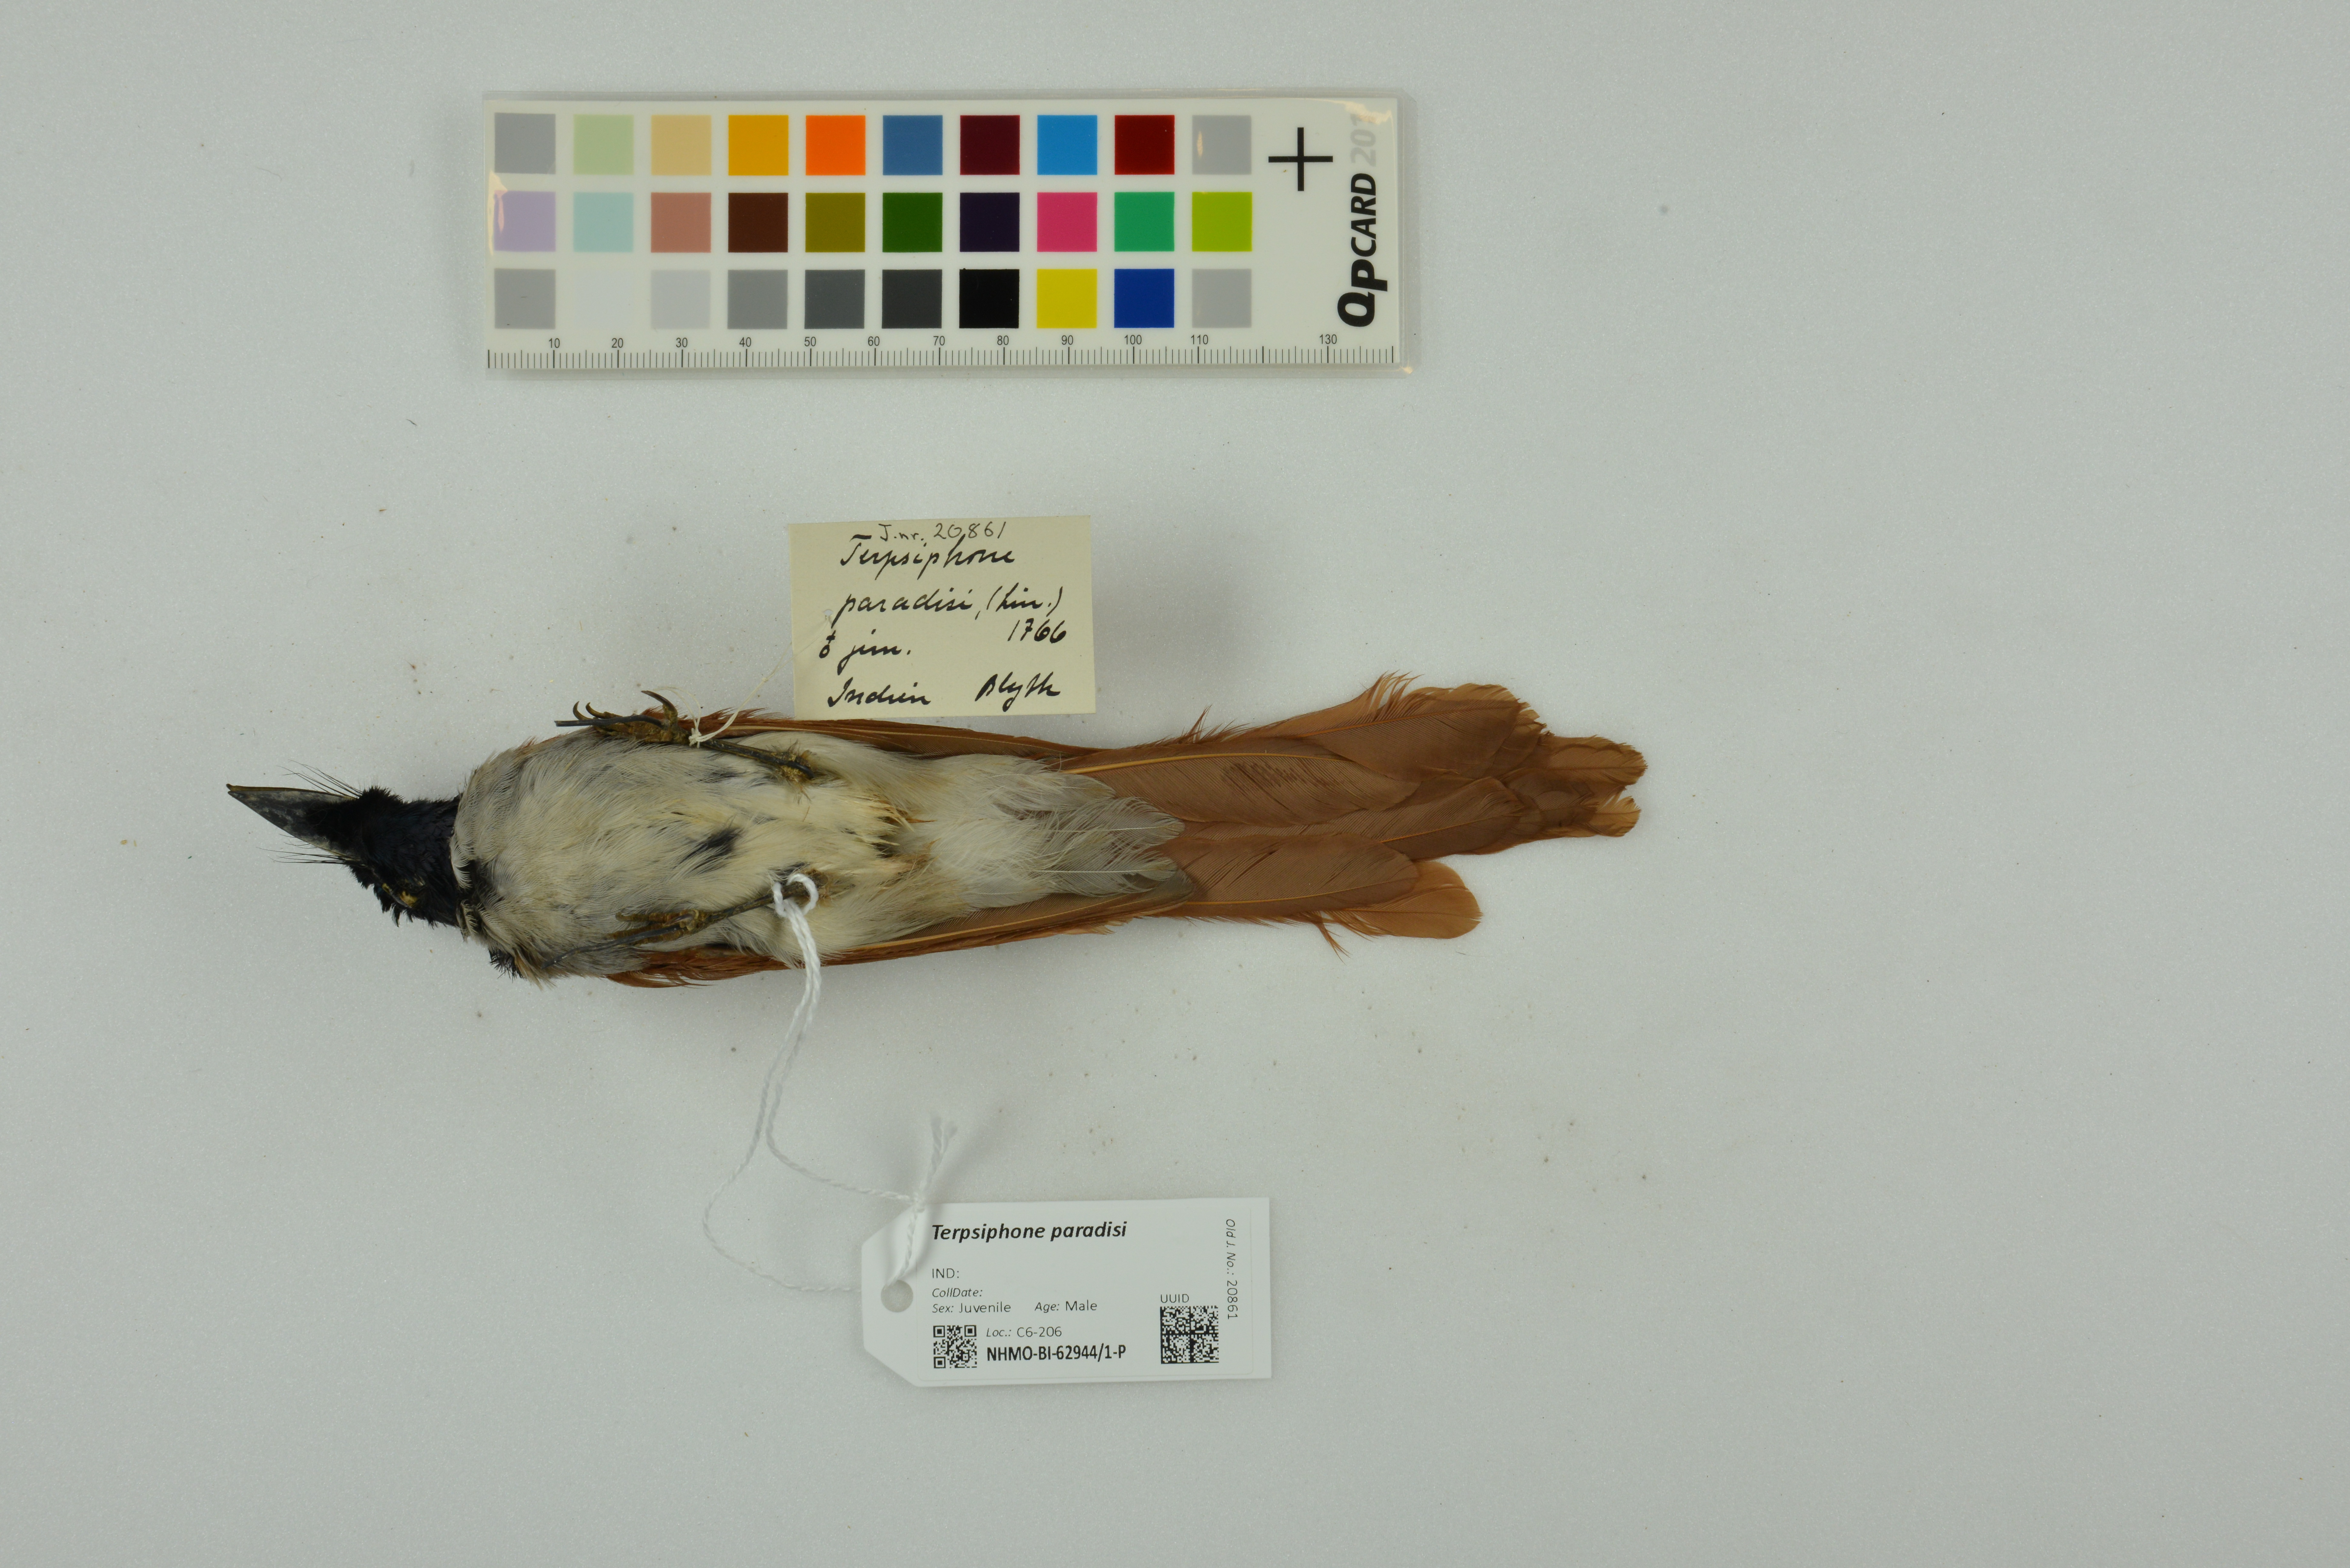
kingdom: Animalia
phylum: Chordata
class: Aves
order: Passeriformes
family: Monarchidae
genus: Terpsiphone
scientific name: Terpsiphone paradisi
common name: Indian paradise flycatcher
